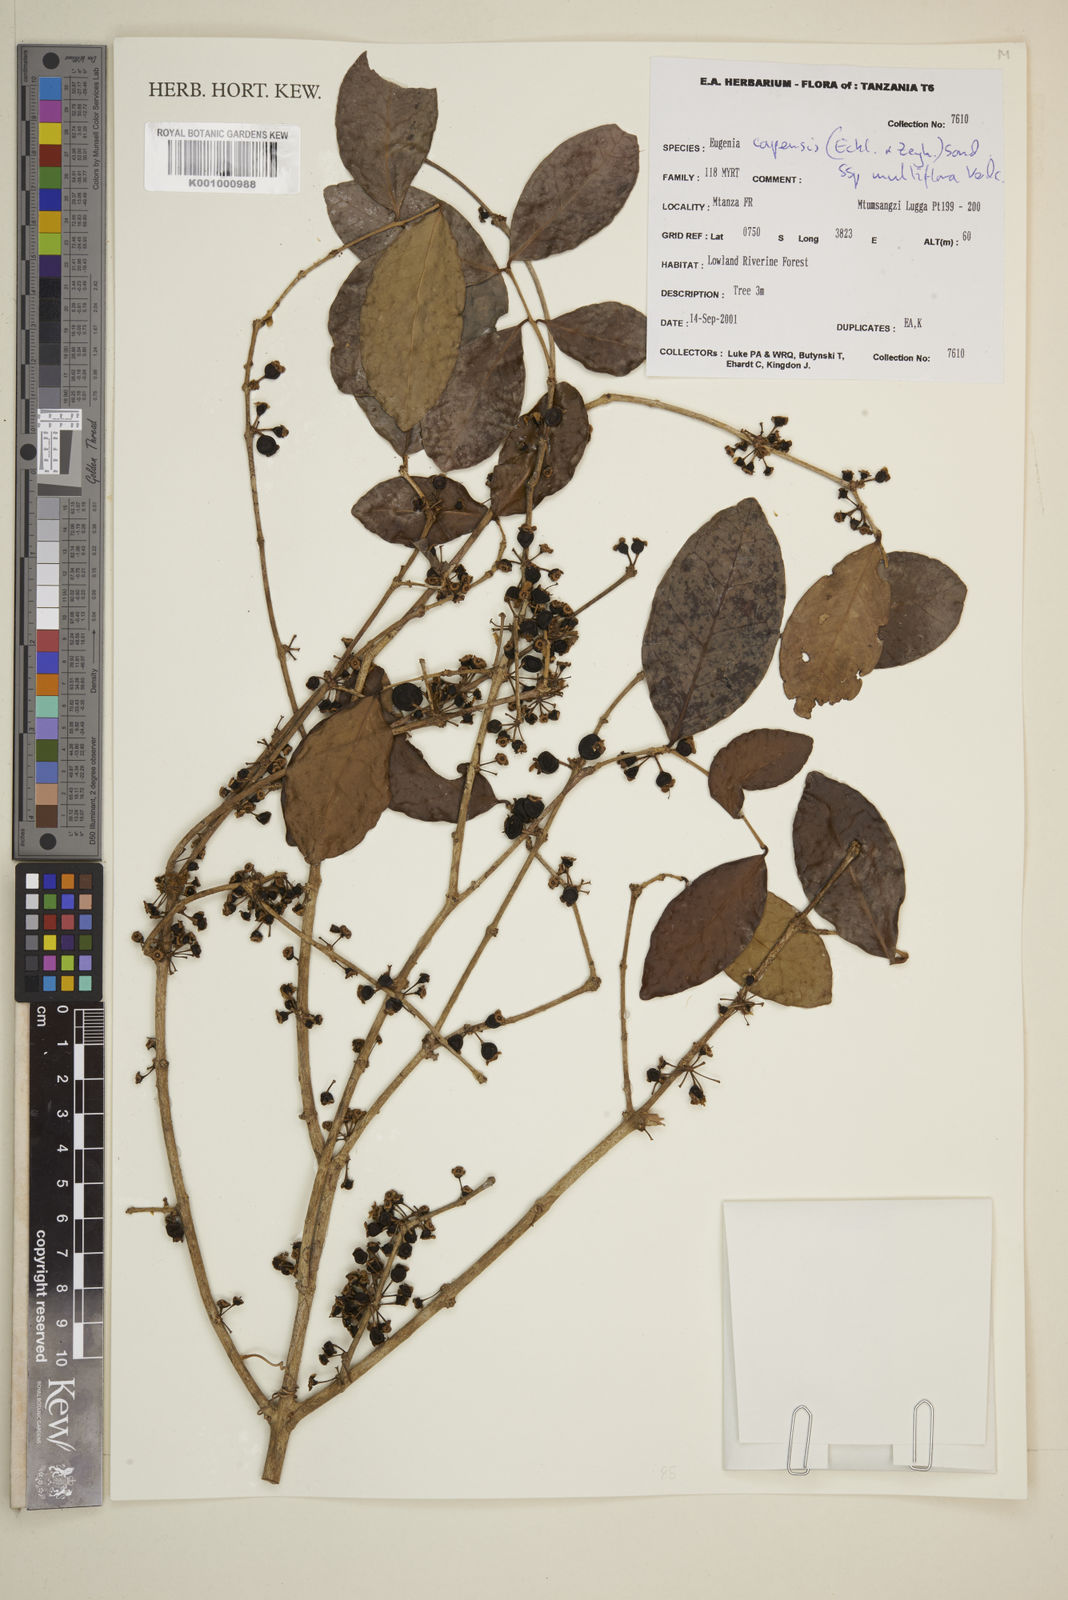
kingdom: Plantae
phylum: Tracheophyta
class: Magnoliopsida
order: Myrtales
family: Myrtaceae
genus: Eugenia
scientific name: Eugenia capensis
